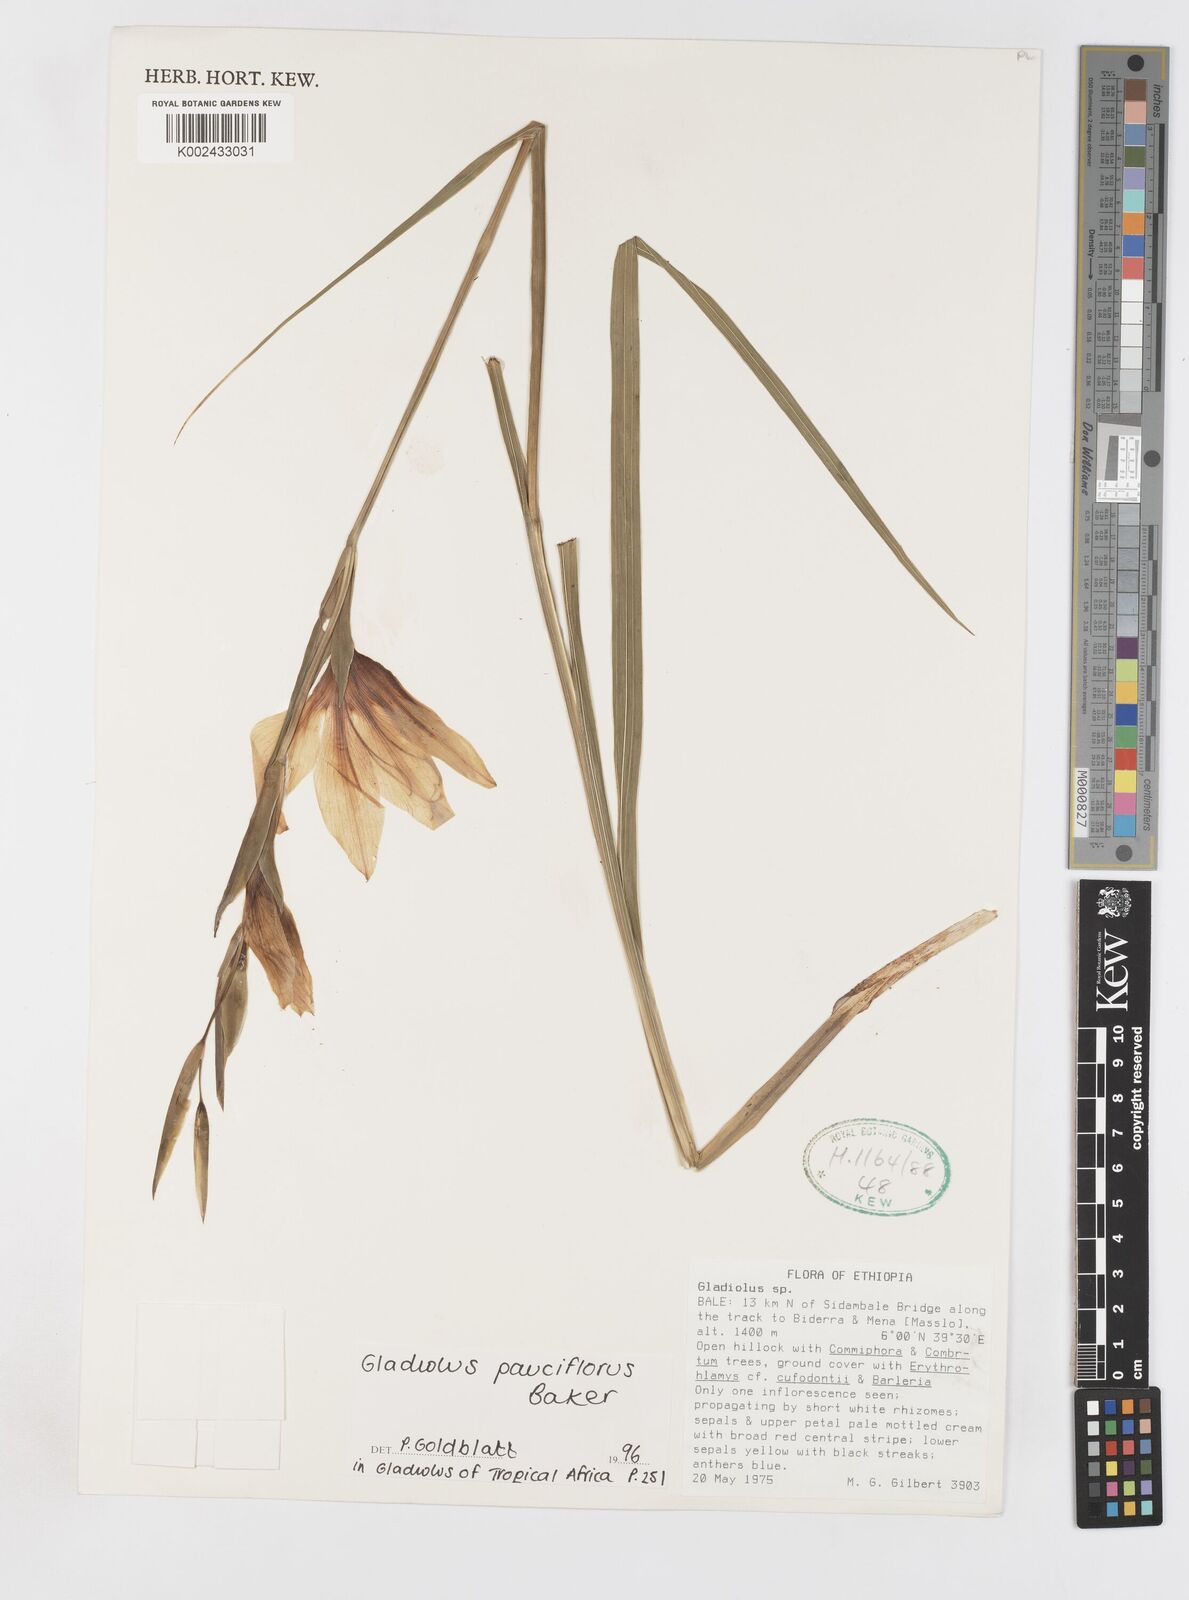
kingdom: Plantae
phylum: Tracheophyta
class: Liliopsida
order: Asparagales
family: Iridaceae
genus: Gladiolus
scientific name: Gladiolus pauciflorus
